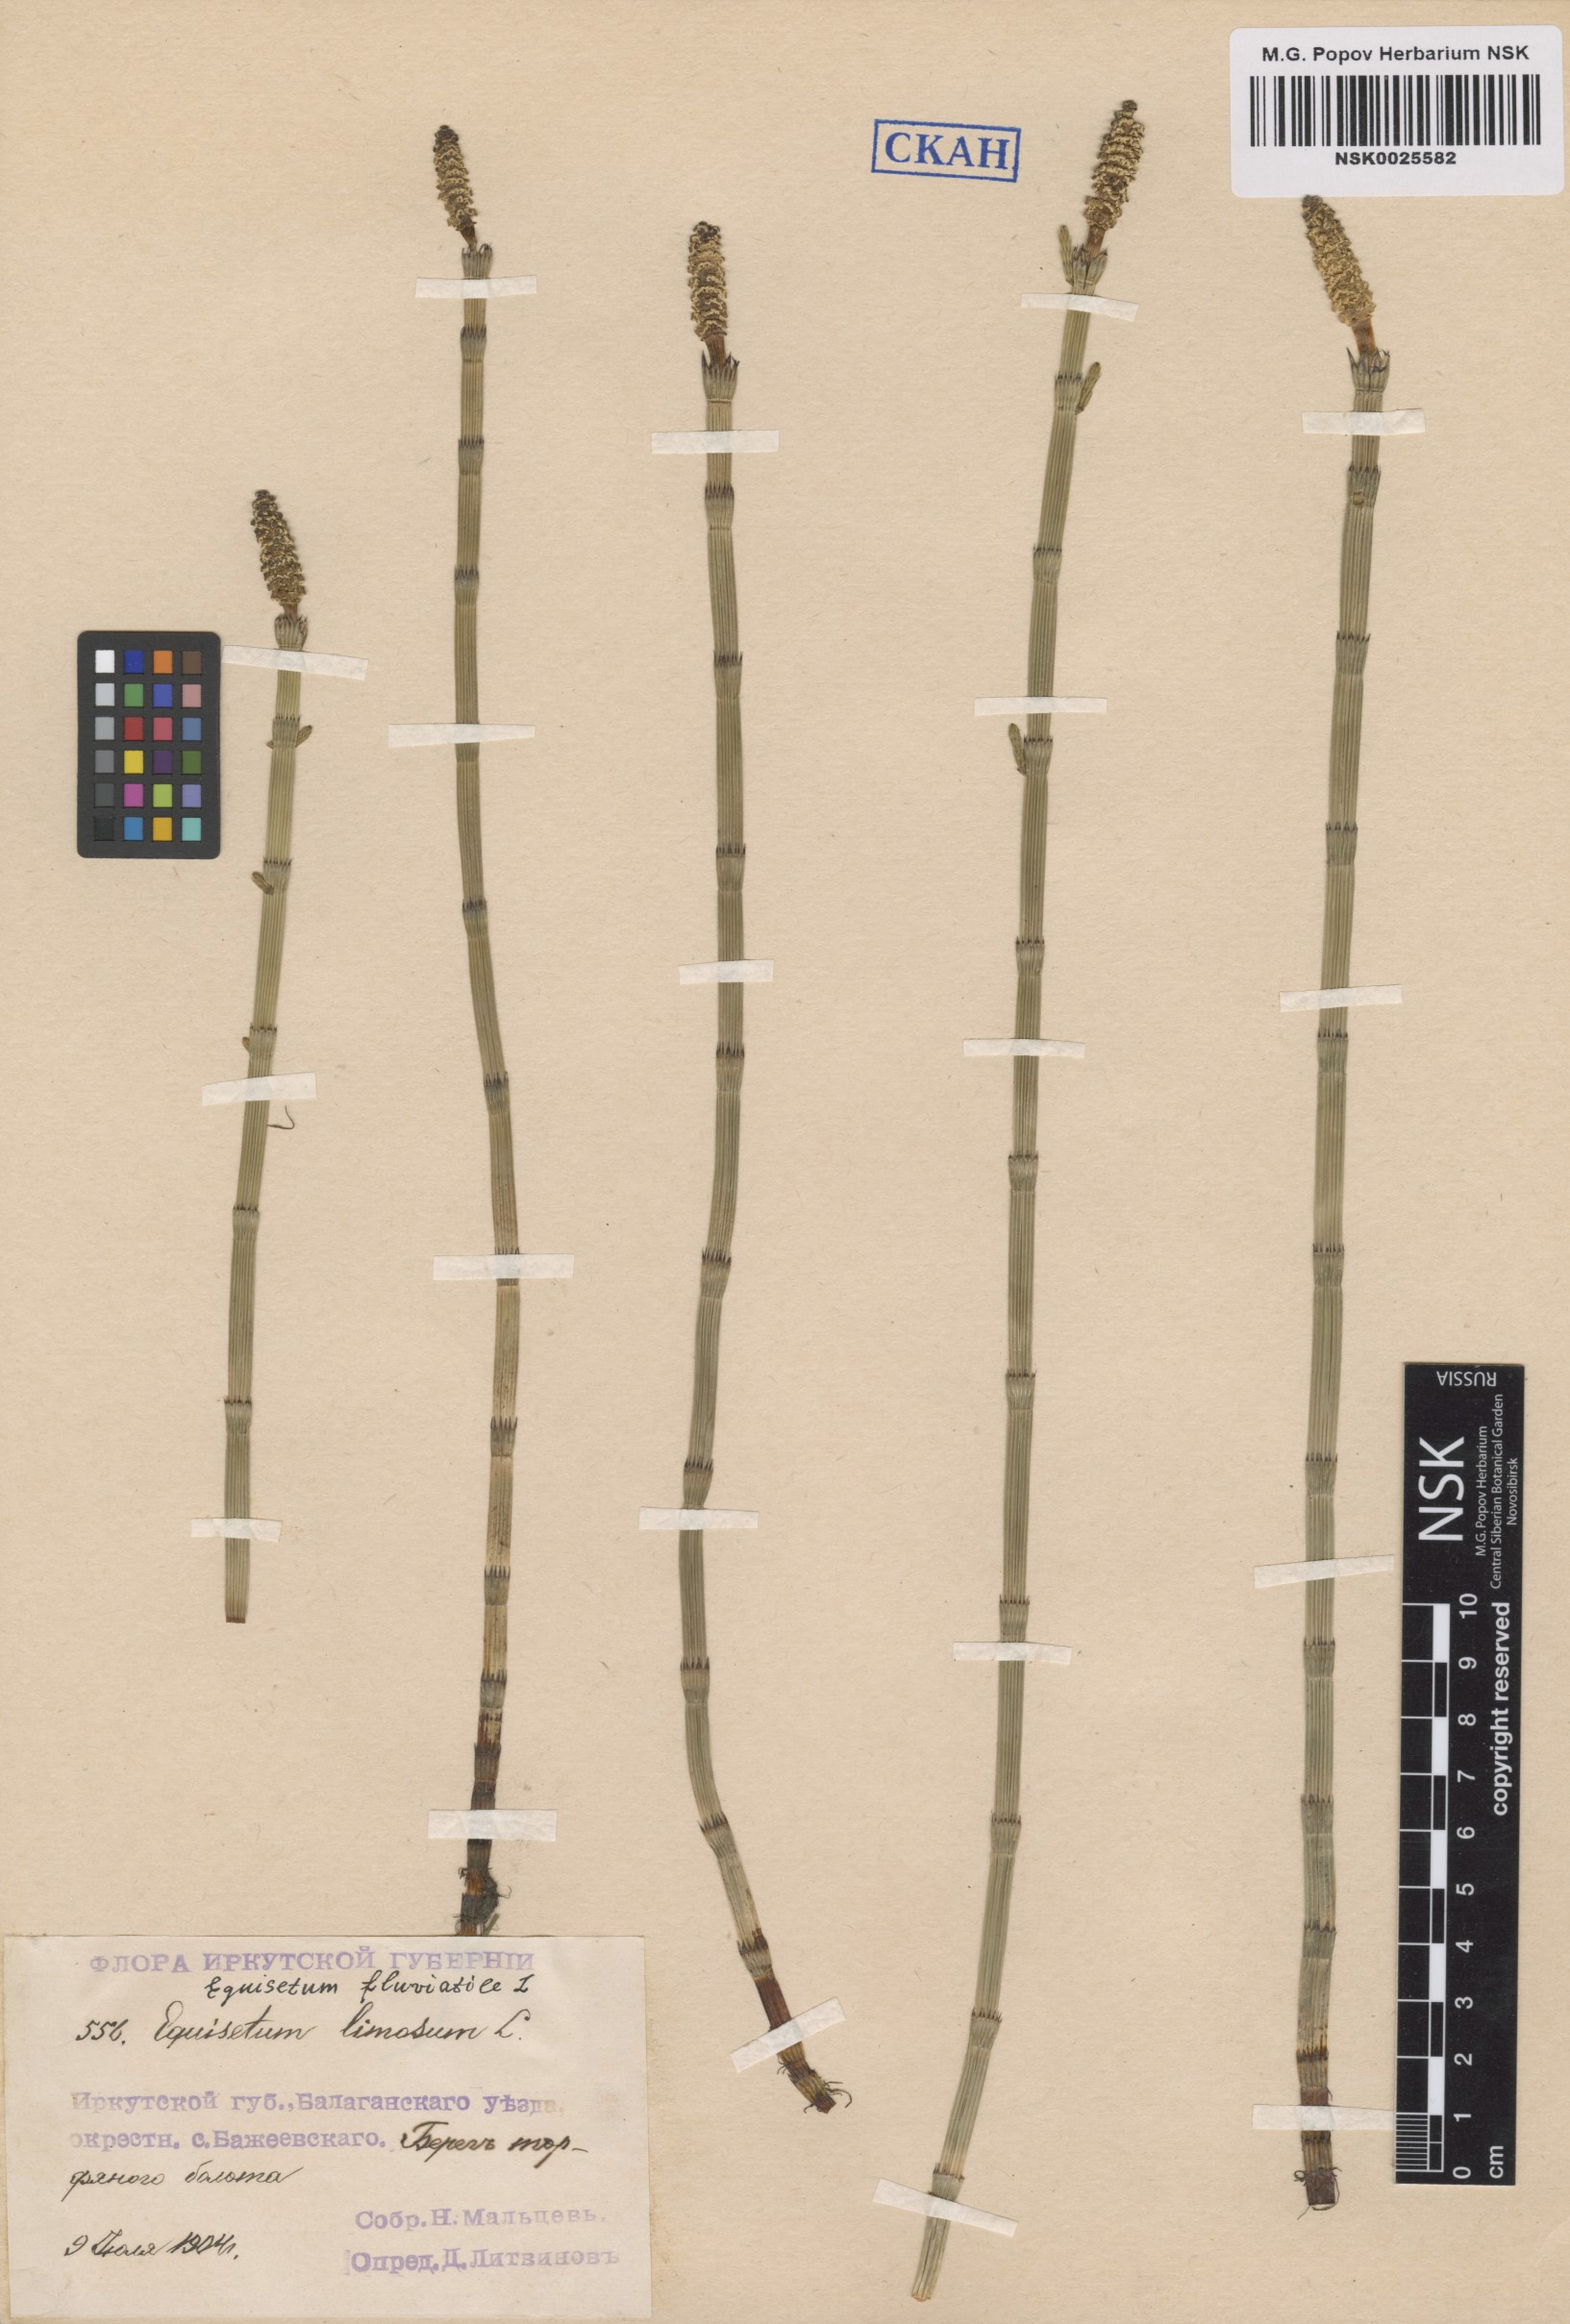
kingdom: Plantae
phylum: Tracheophyta
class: Polypodiopsida
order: Equisetales
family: Equisetaceae
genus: Equisetum
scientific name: Equisetum fluviatile
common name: Water horsetail
